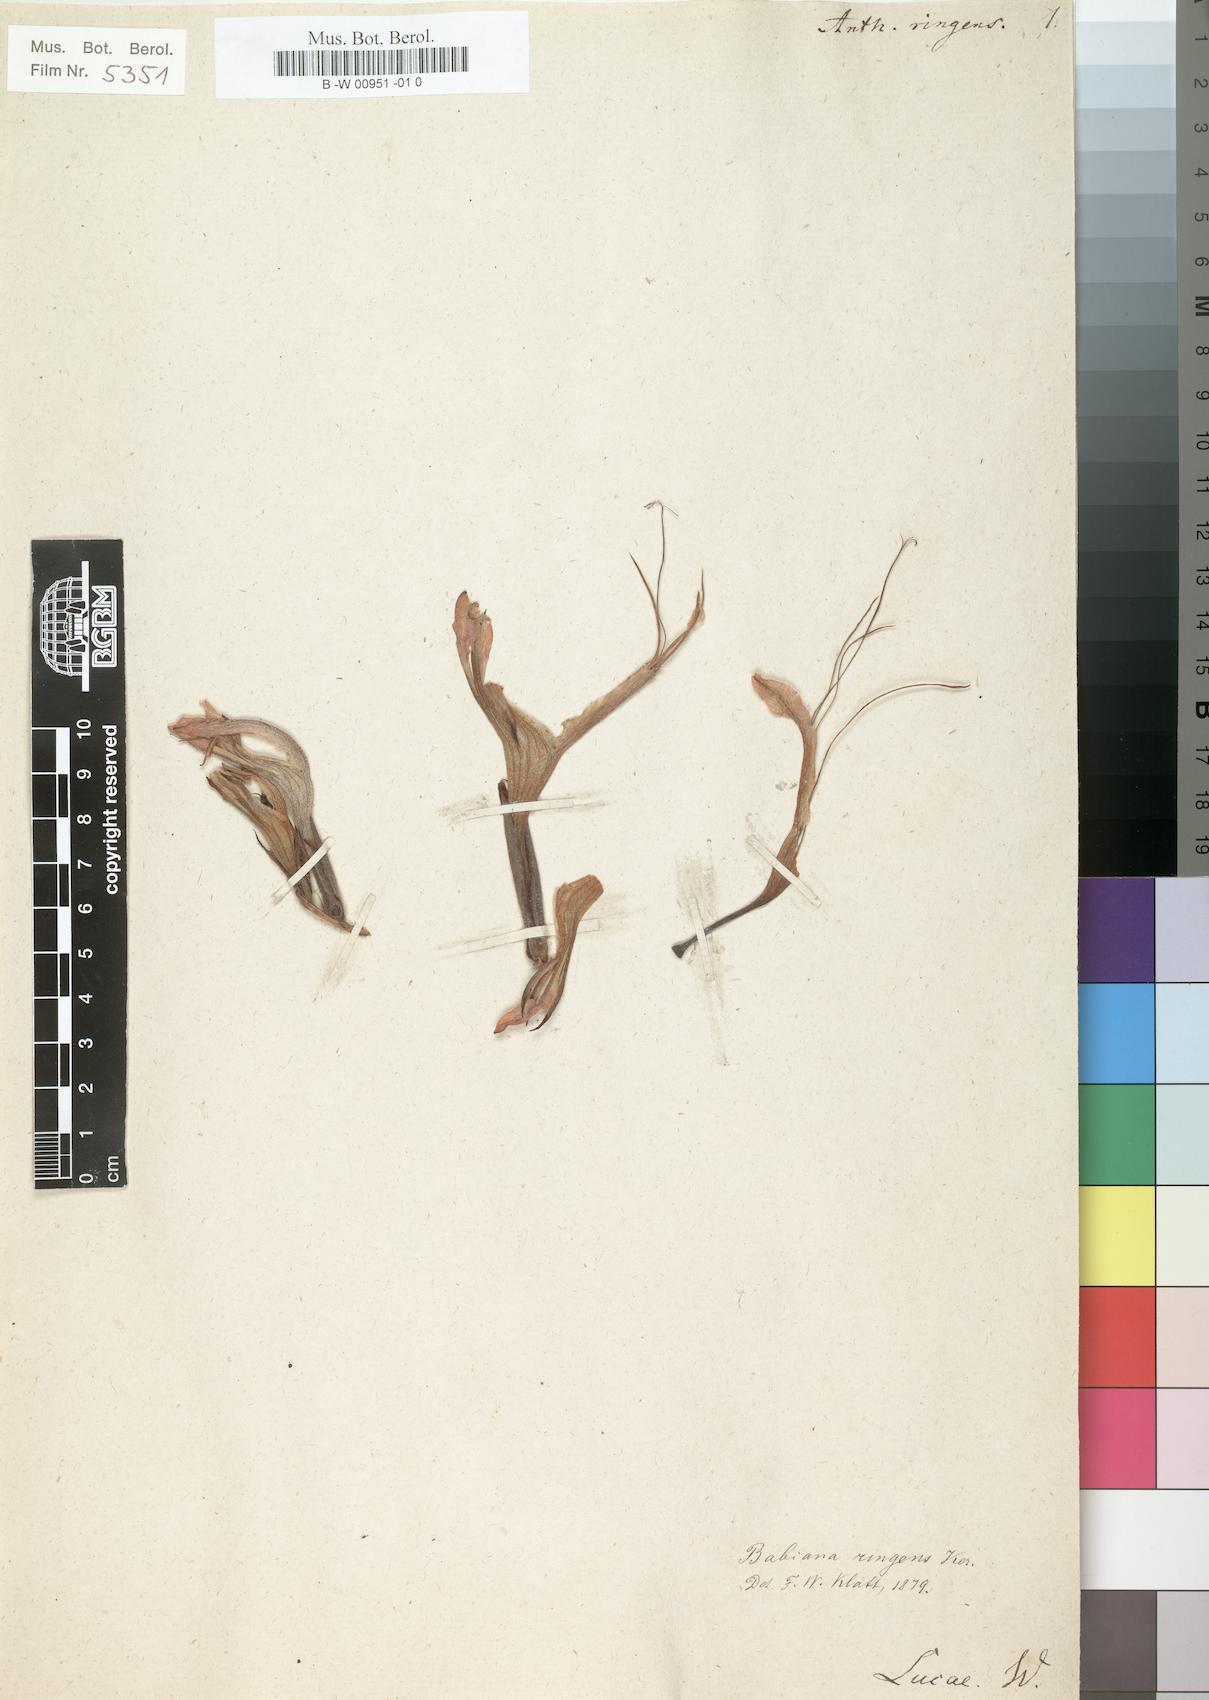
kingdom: Plantae
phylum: Tracheophyta
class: Liliopsida
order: Asparagales
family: Iridaceae
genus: Babiana
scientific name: Babiana ringens
